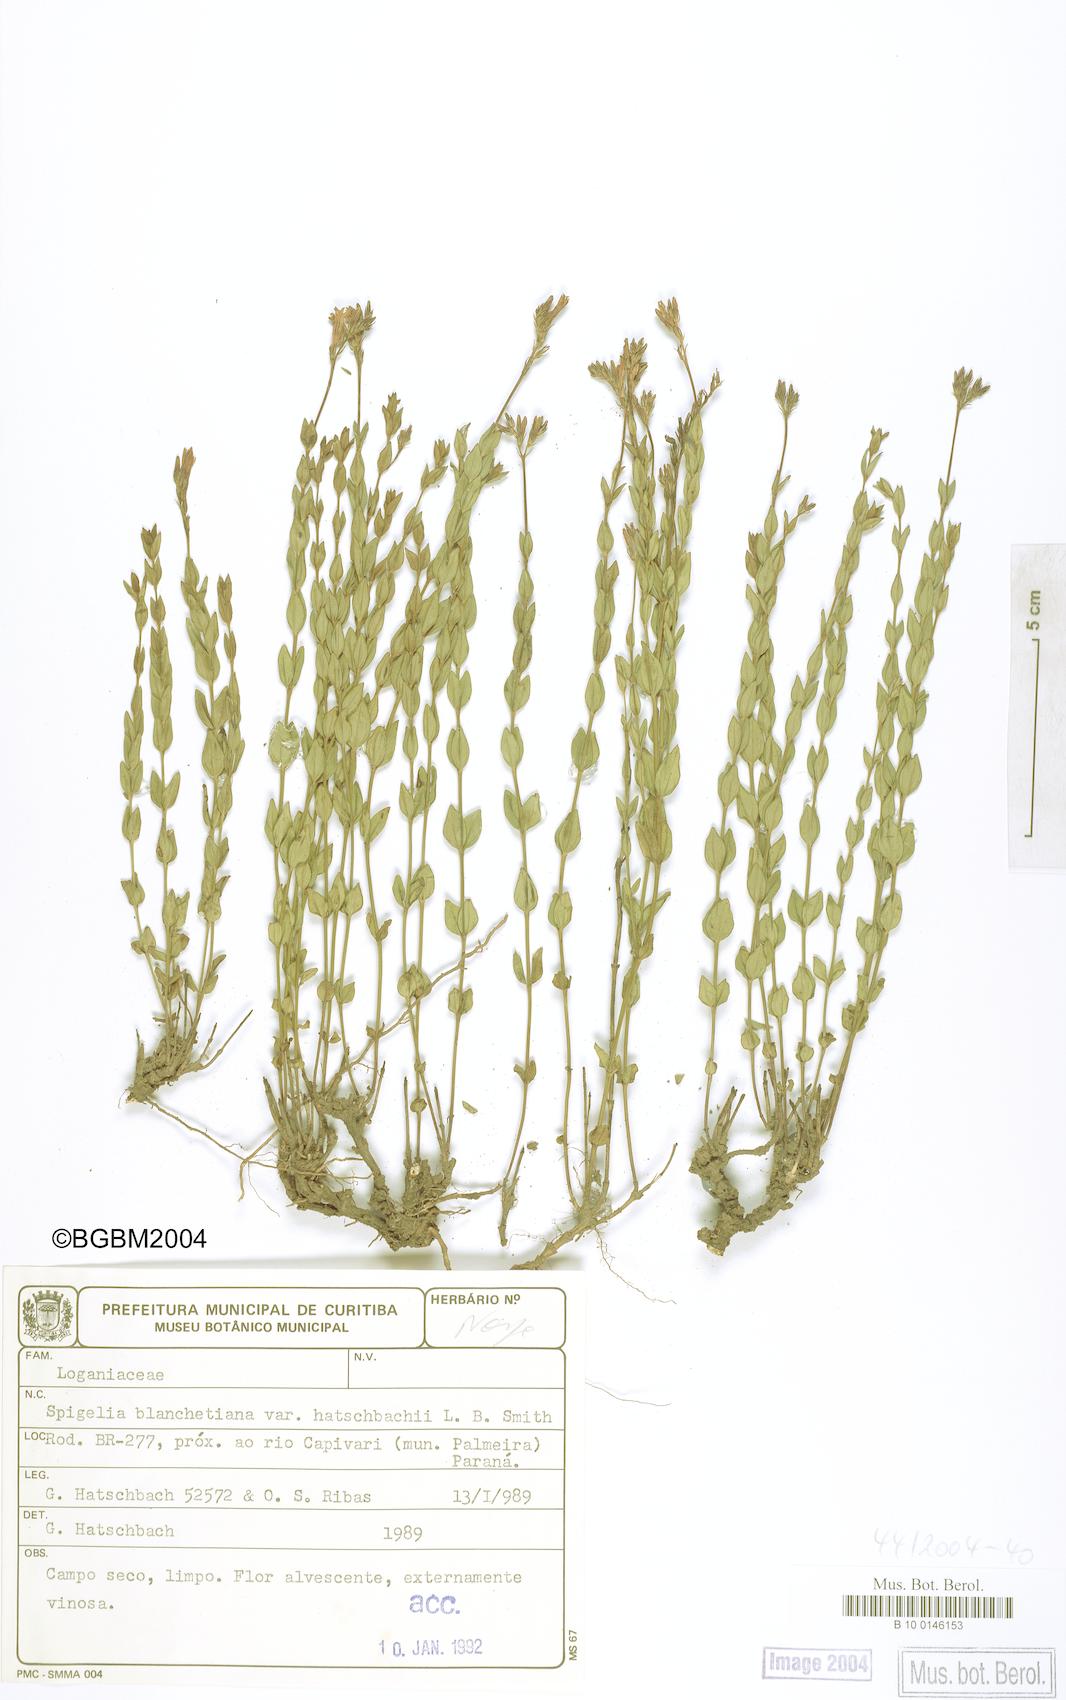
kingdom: Plantae
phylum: Tracheophyta
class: Magnoliopsida
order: Gentianales
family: Loganiaceae
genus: Spigelia
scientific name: Spigelia blanchetiana
